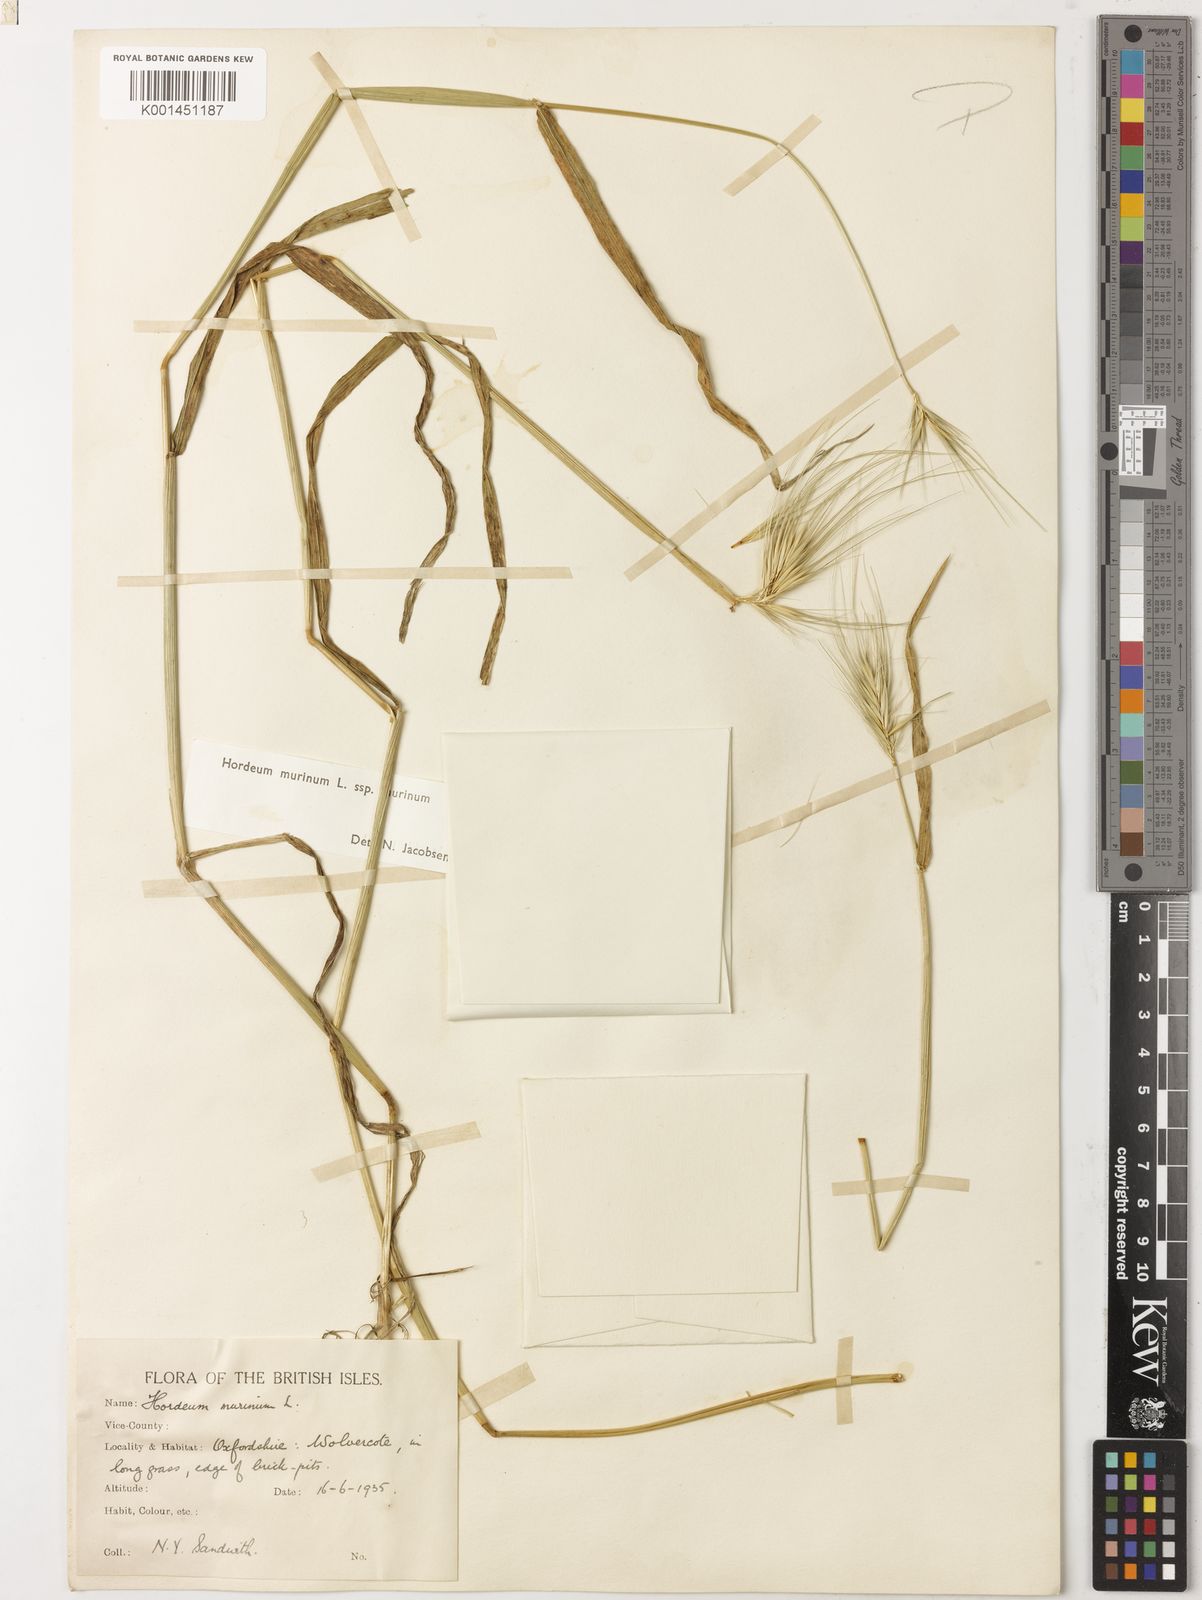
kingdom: Plantae
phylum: Tracheophyta
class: Liliopsida
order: Poales
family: Poaceae
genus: Hordeum
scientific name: Hordeum murinum
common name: Wall barley
